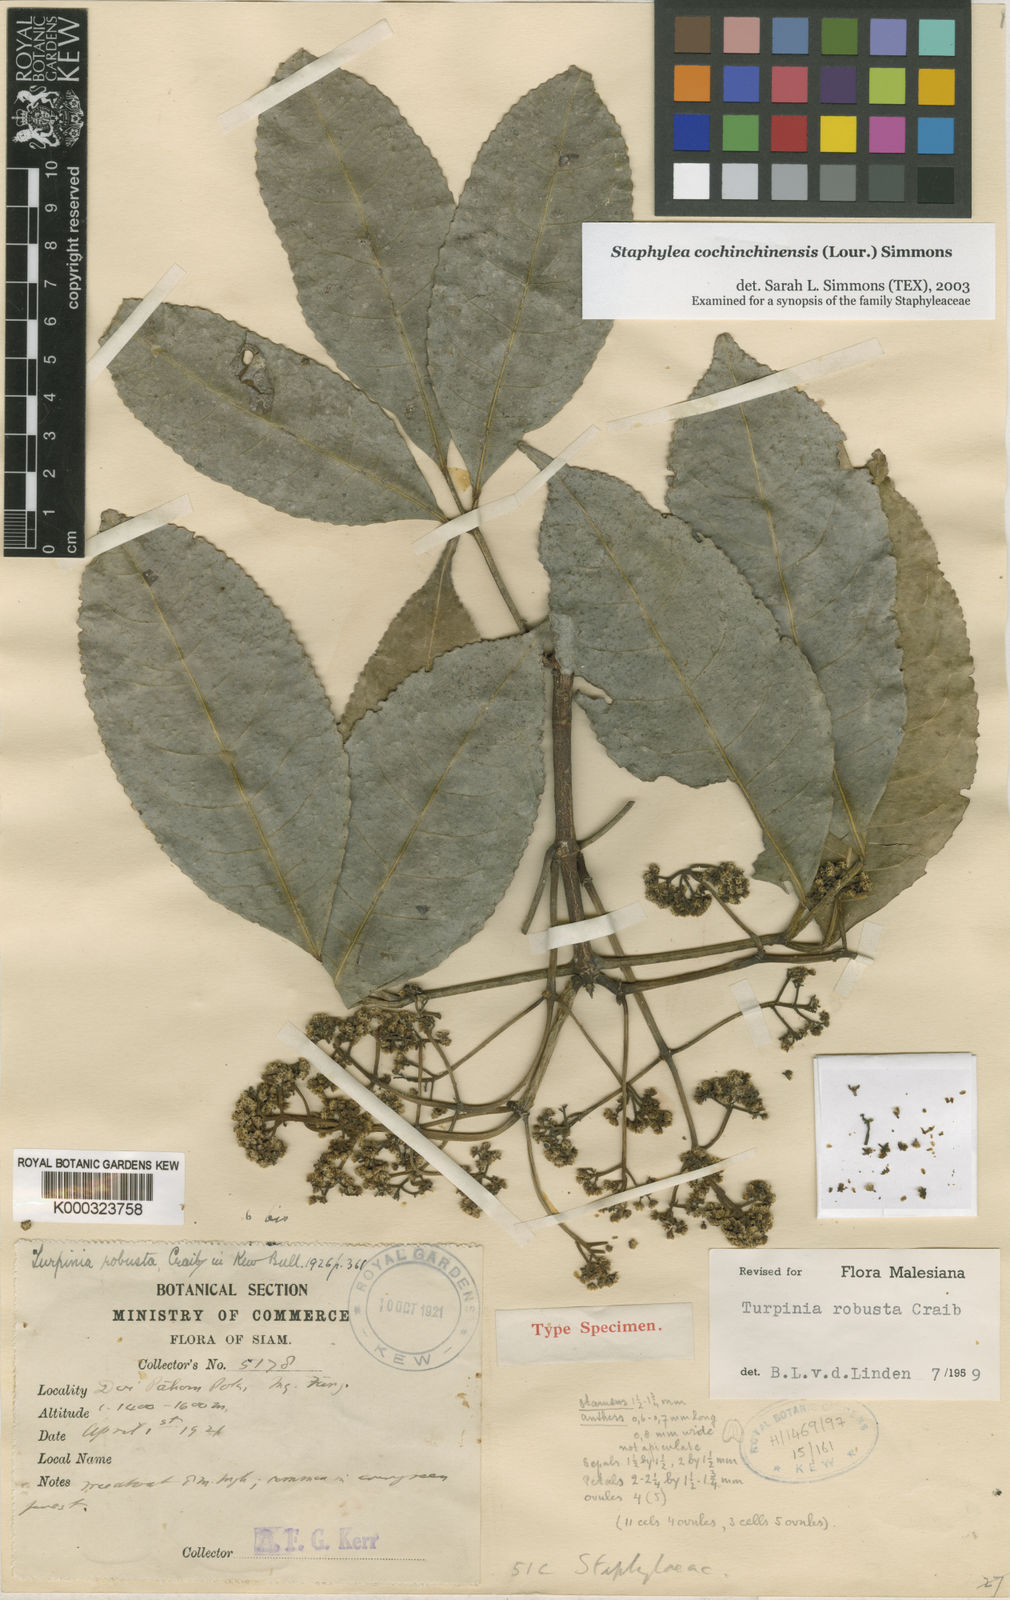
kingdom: Plantae
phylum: Tracheophyta
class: Magnoliopsida
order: Crossosomatales
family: Staphyleaceae
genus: Turpinia
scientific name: Turpinia cochinchinensis
